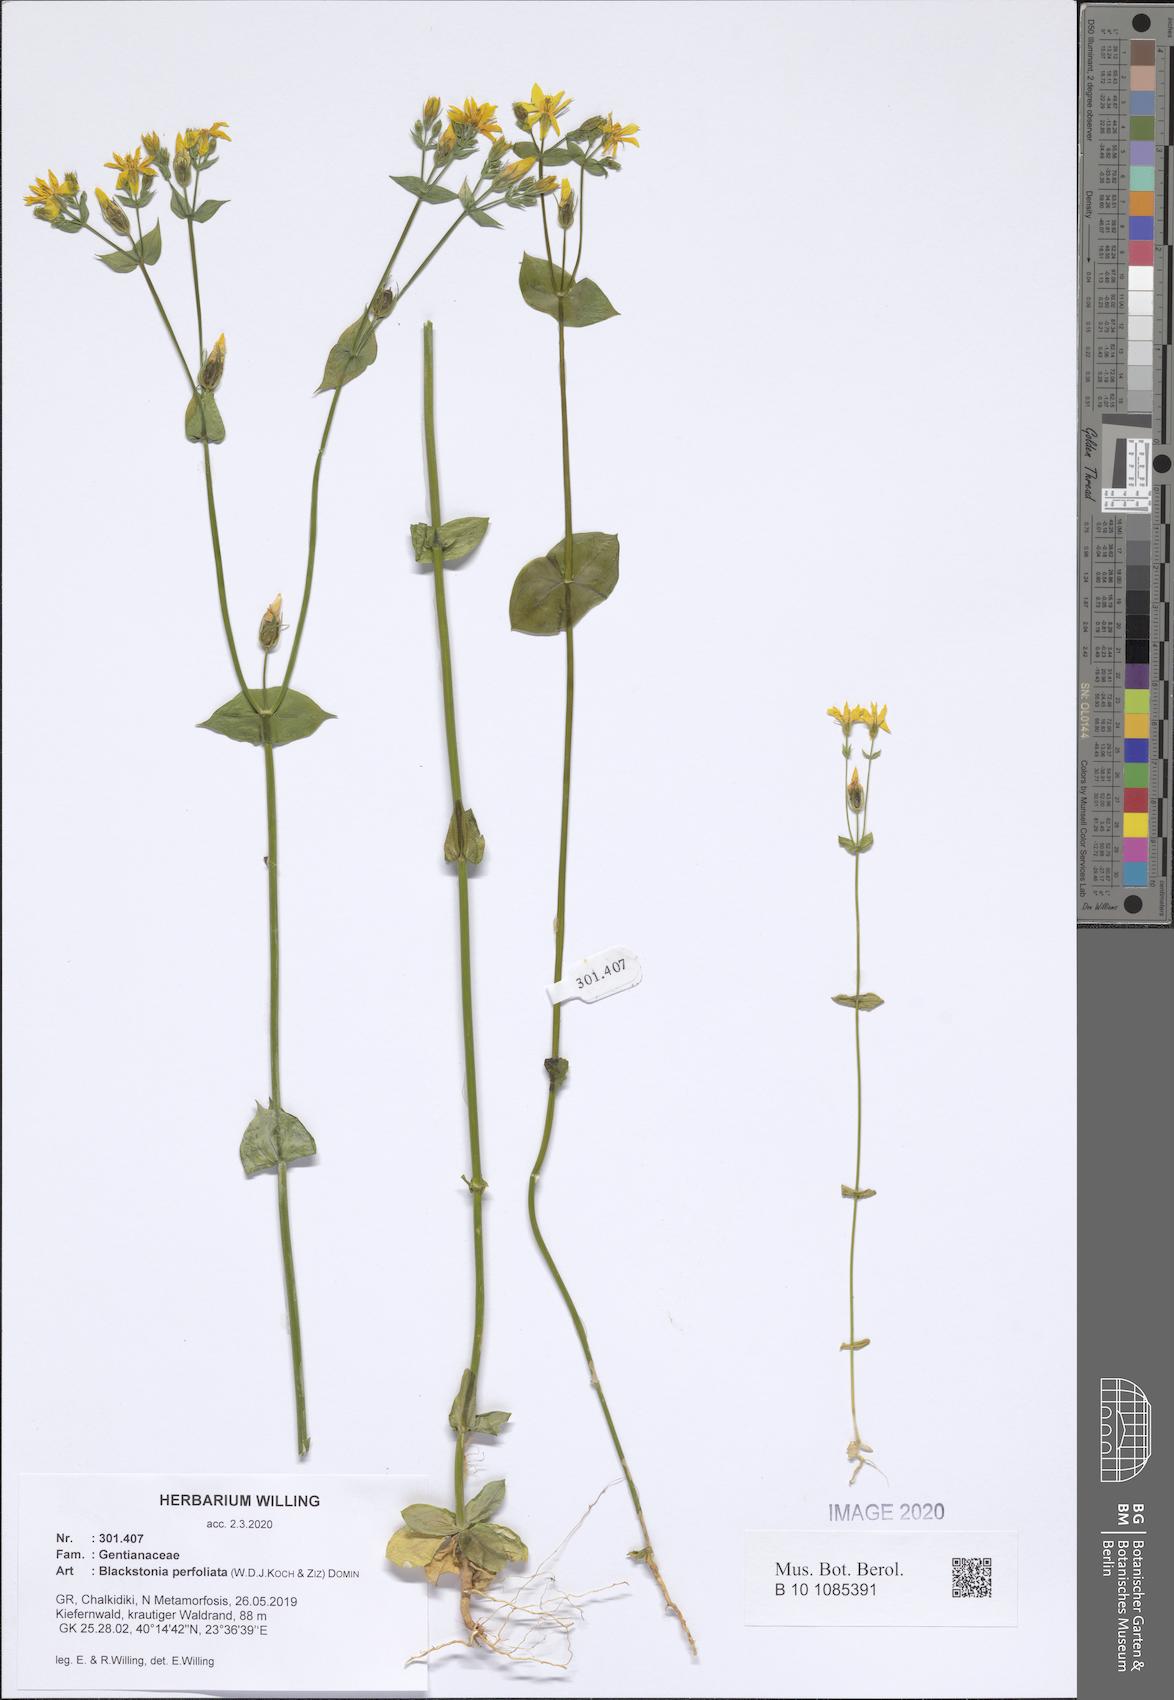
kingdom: Plantae
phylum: Tracheophyta
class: Magnoliopsida
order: Gentianales
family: Gentianaceae
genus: Blackstonia
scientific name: Blackstonia perfoliata
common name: Yellow-wort
